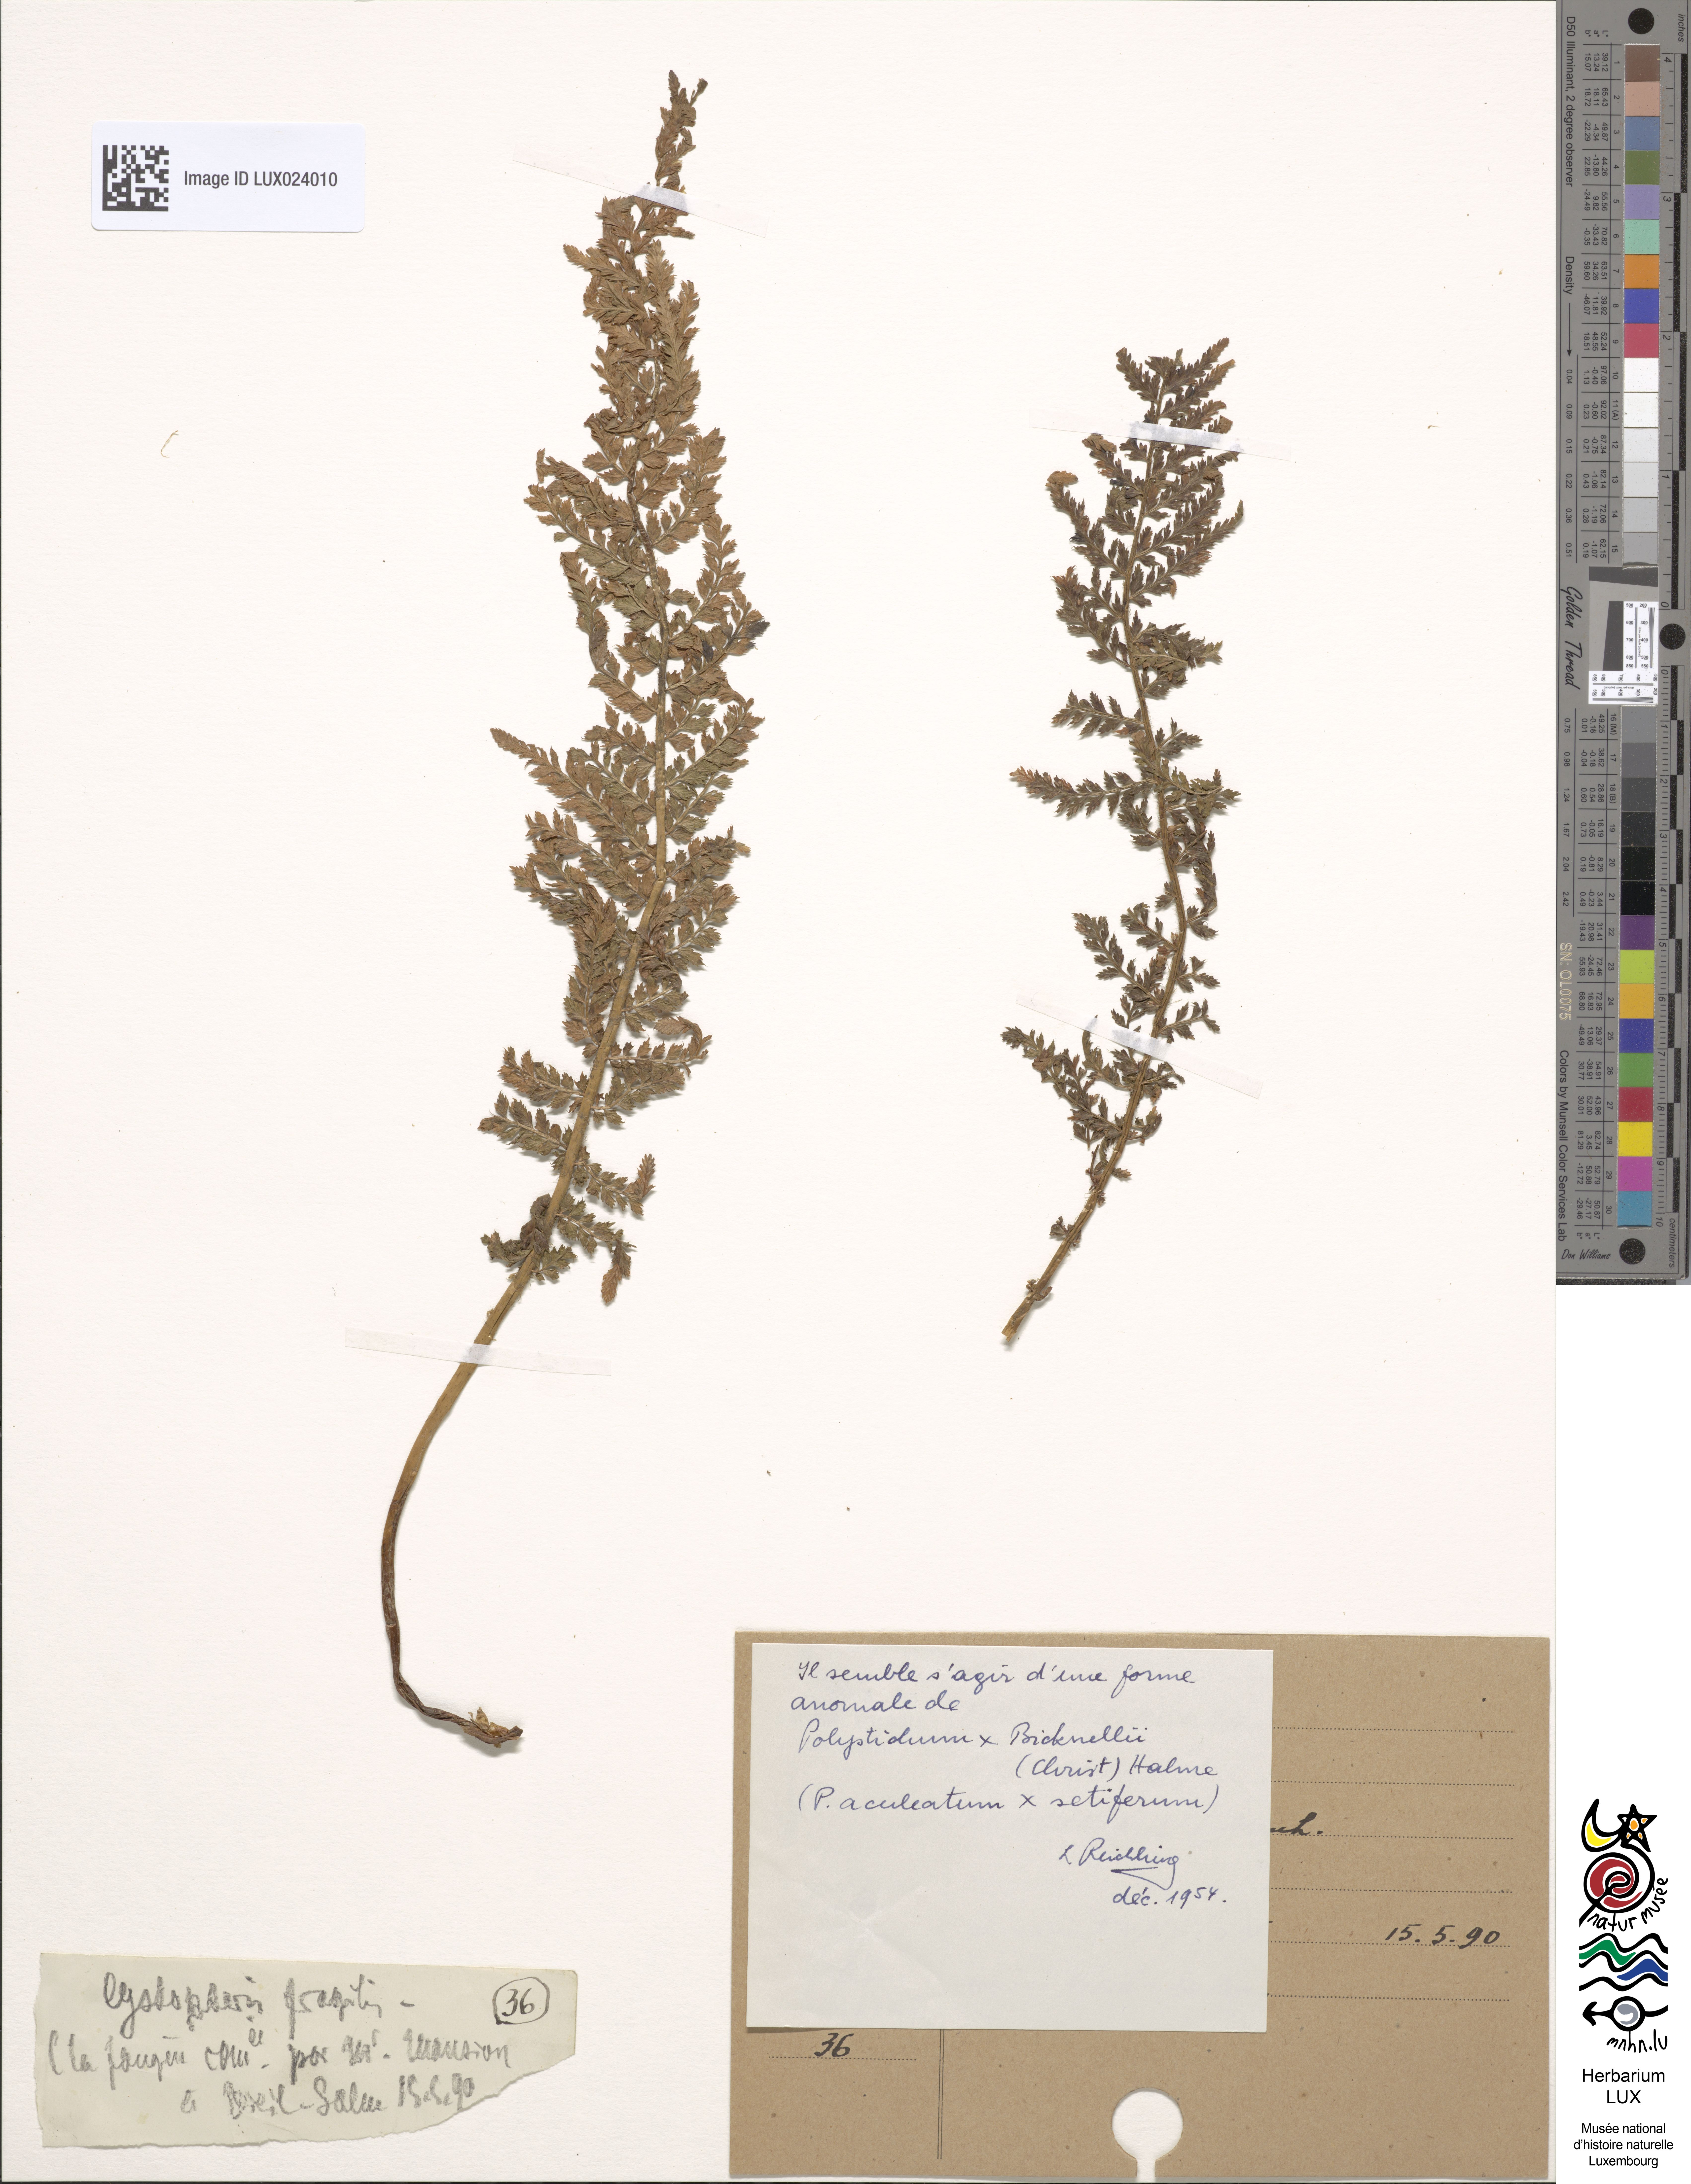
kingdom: Plantae
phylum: Tracheophyta
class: Polypodiopsida
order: Polypodiales
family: Dryopteridaceae
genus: Polystichum
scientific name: Polystichum
